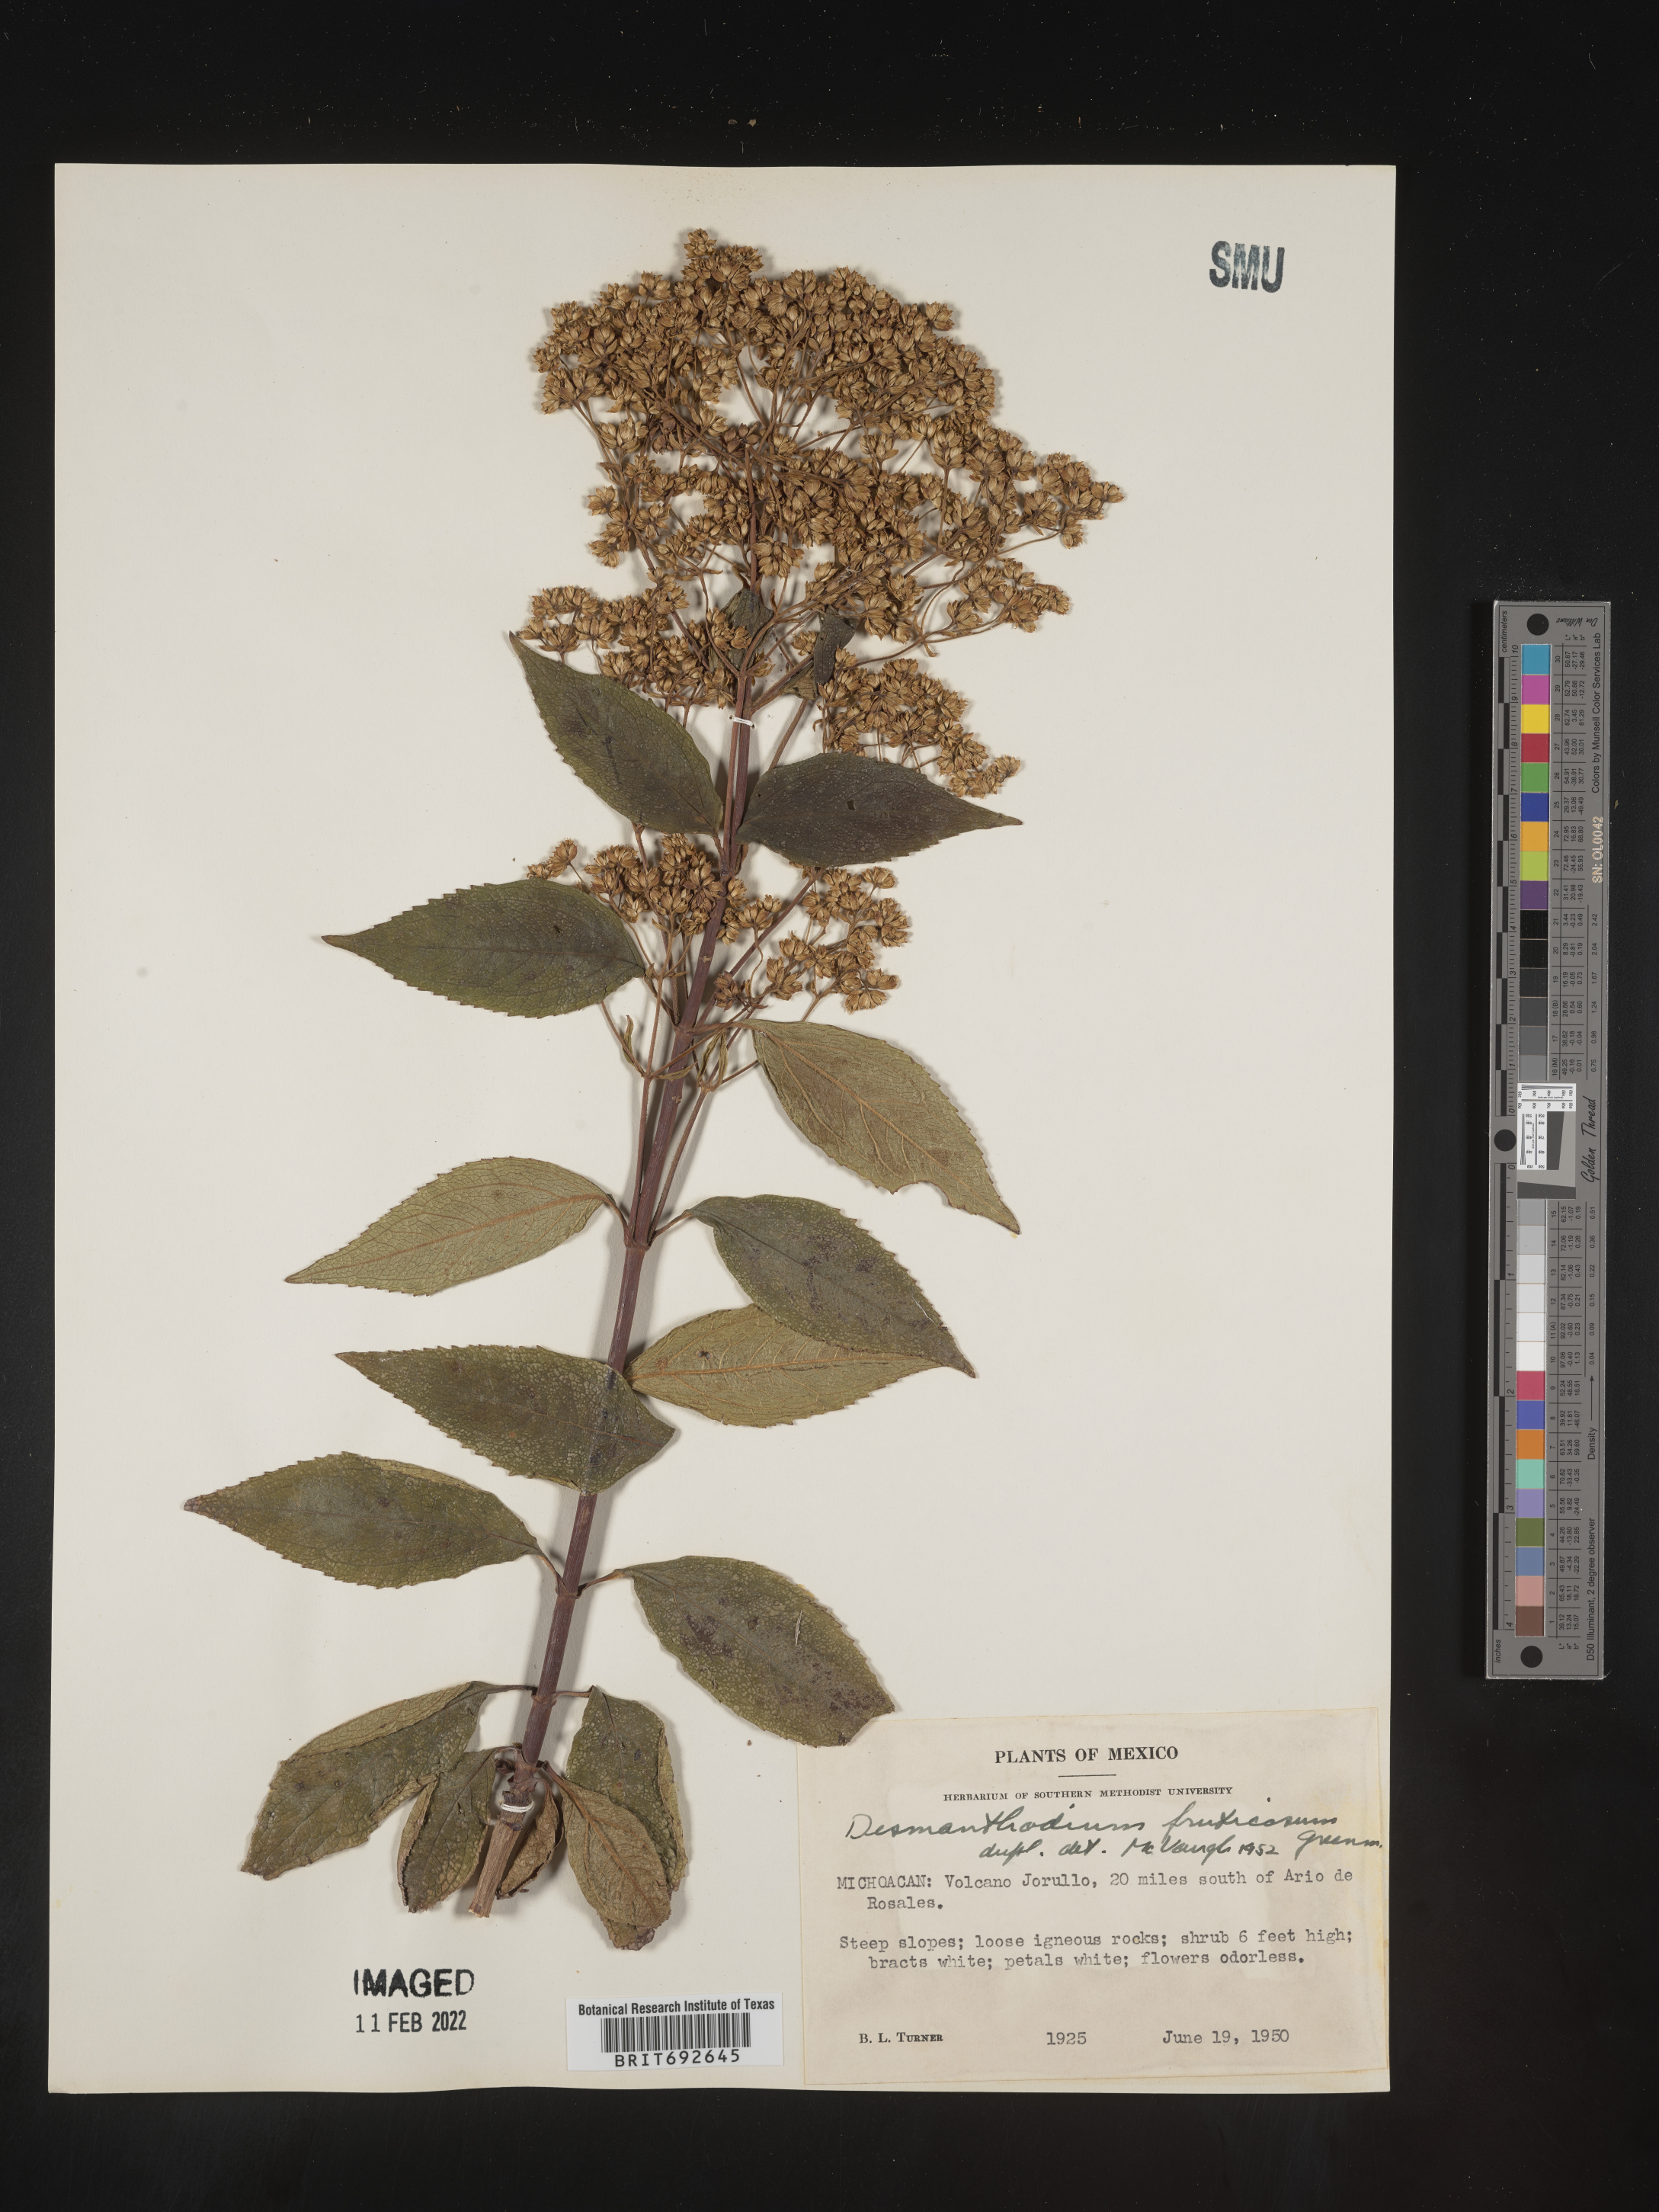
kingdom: Plantae
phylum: Tracheophyta
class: Magnoliopsida
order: Asterales
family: Asteraceae
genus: Desmanthodium
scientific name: Desmanthodium
